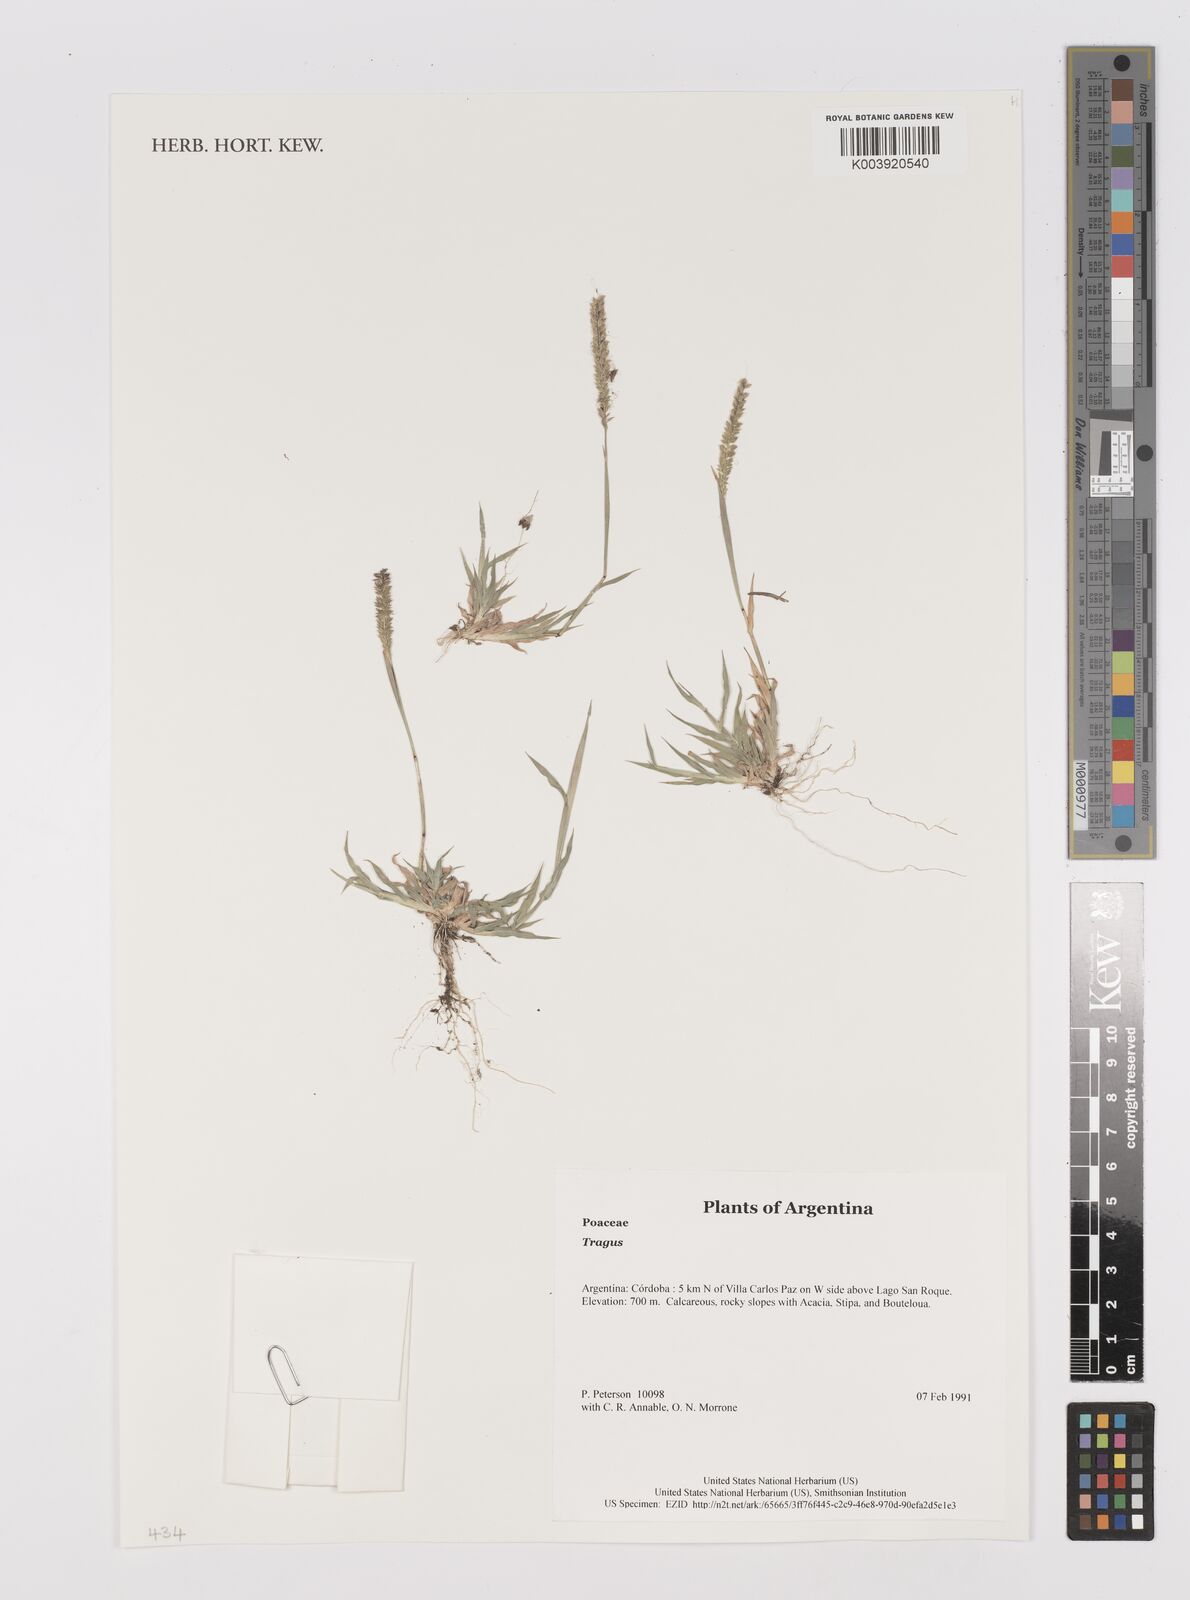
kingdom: Plantae
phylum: Tracheophyta
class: Liliopsida
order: Poales
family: Poaceae
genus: Tragus
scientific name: Tragus
